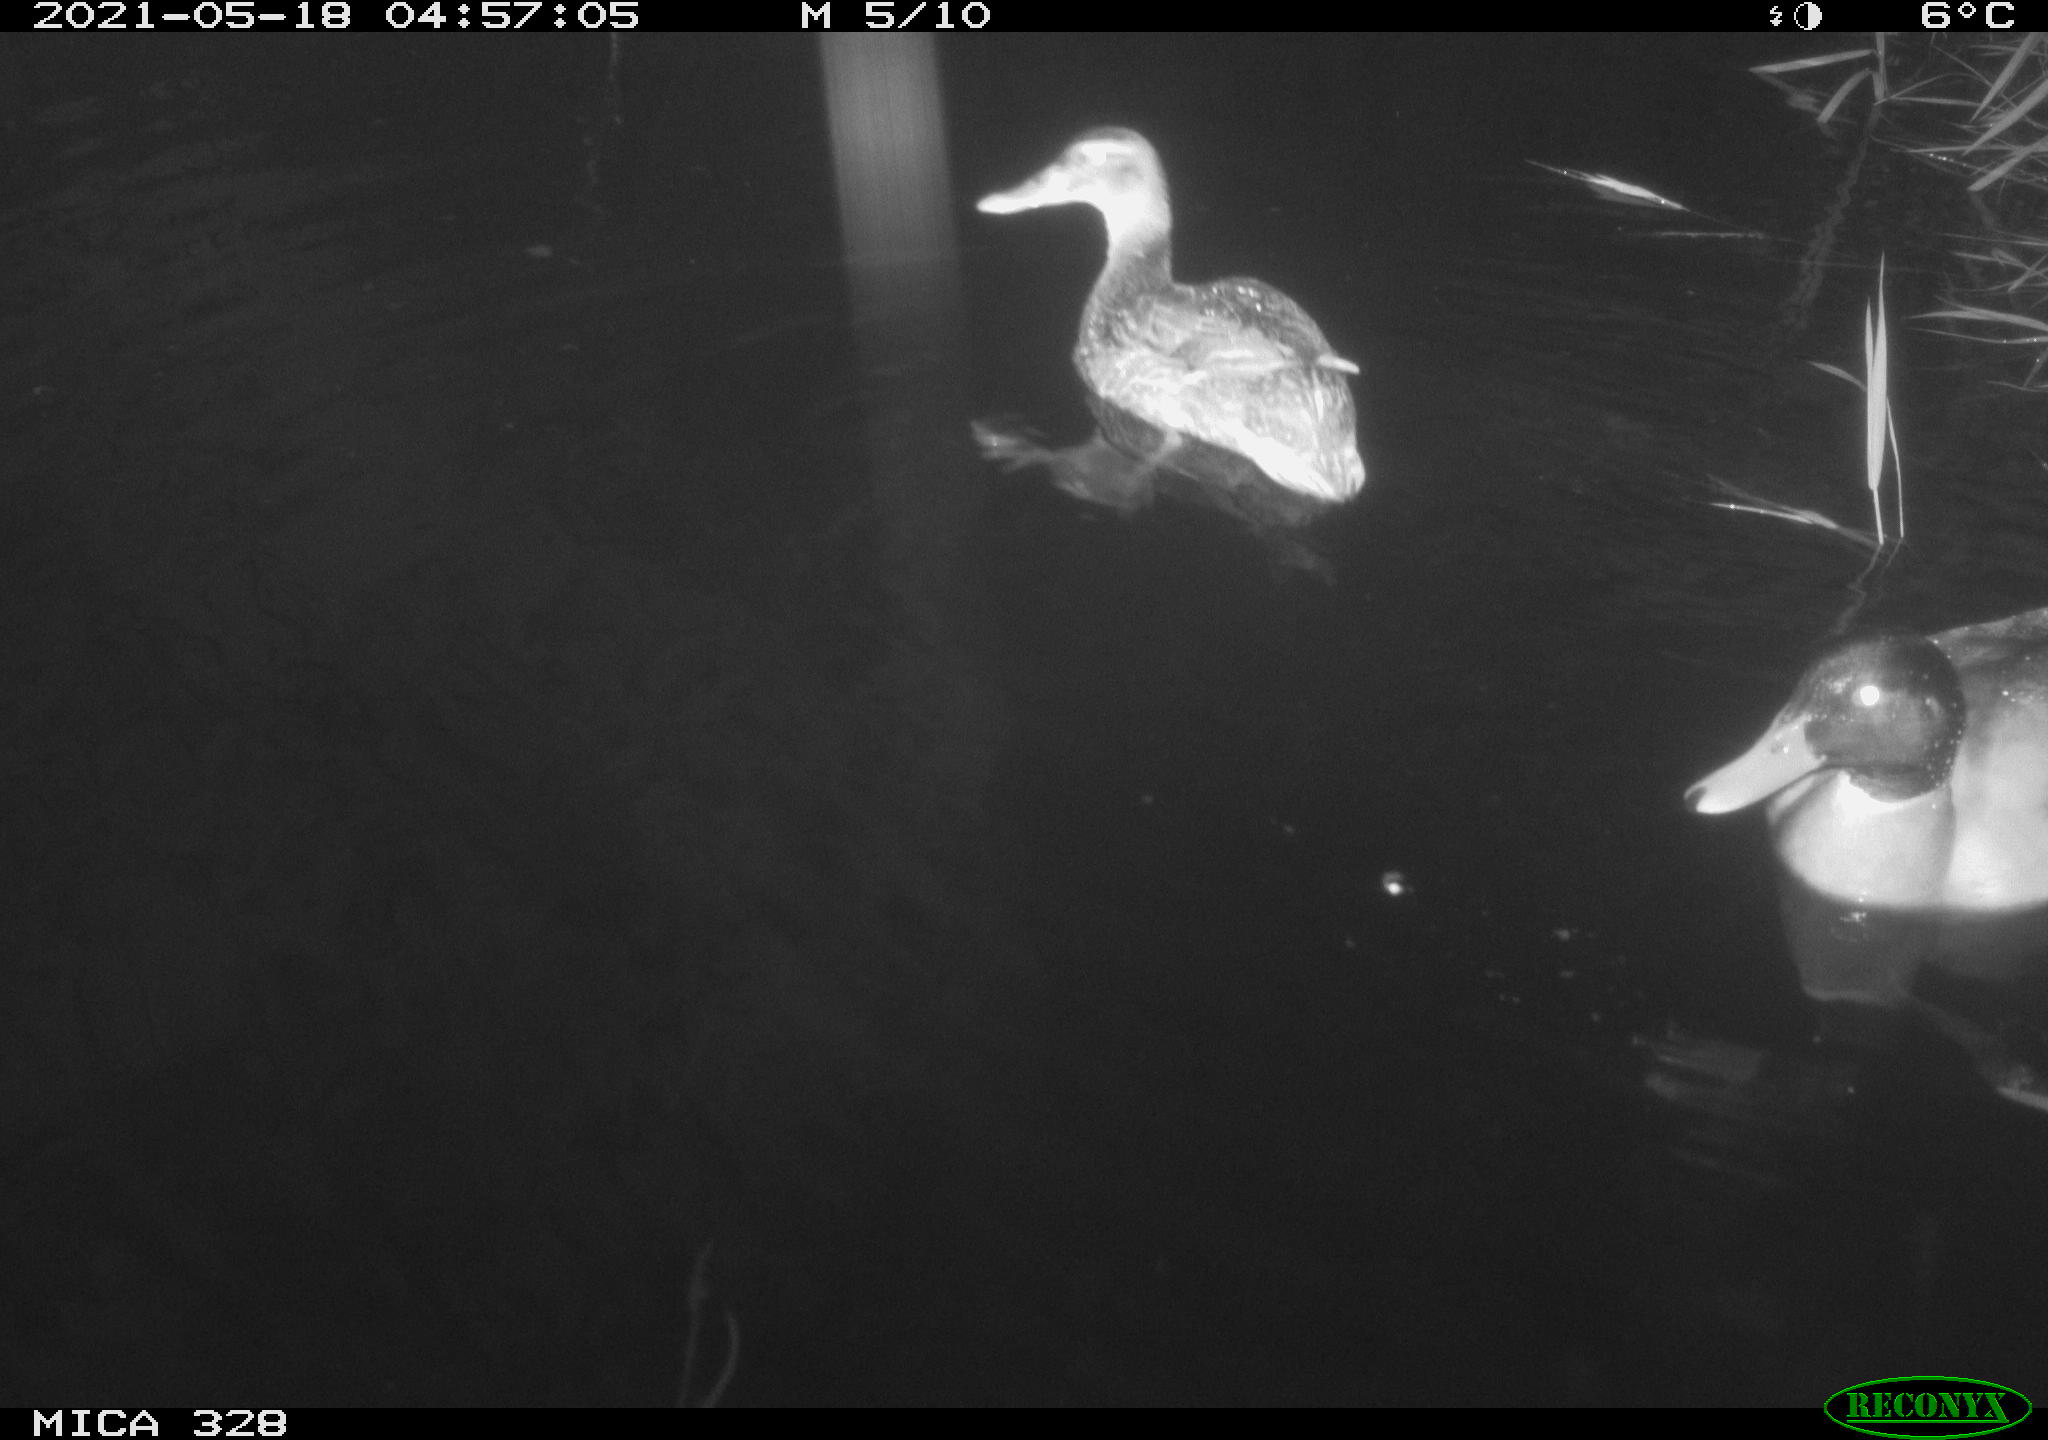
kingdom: Animalia
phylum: Chordata
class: Aves
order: Anseriformes
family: Anatidae
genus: Anas
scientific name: Anas platyrhynchos
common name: Mallard
